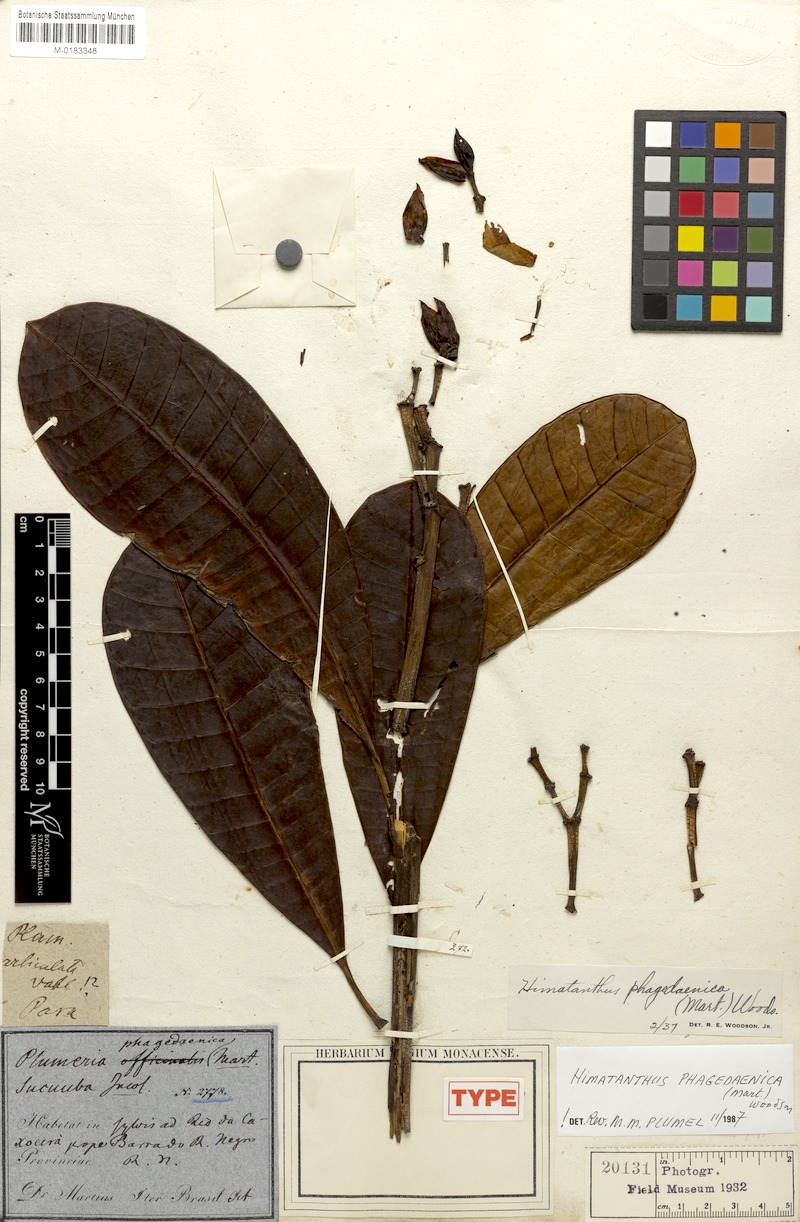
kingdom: Plantae
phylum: Tracheophyta
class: Magnoliopsida
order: Gentianales
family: Apocynaceae
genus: Himatanthus
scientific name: Himatanthus phagedaenicus
